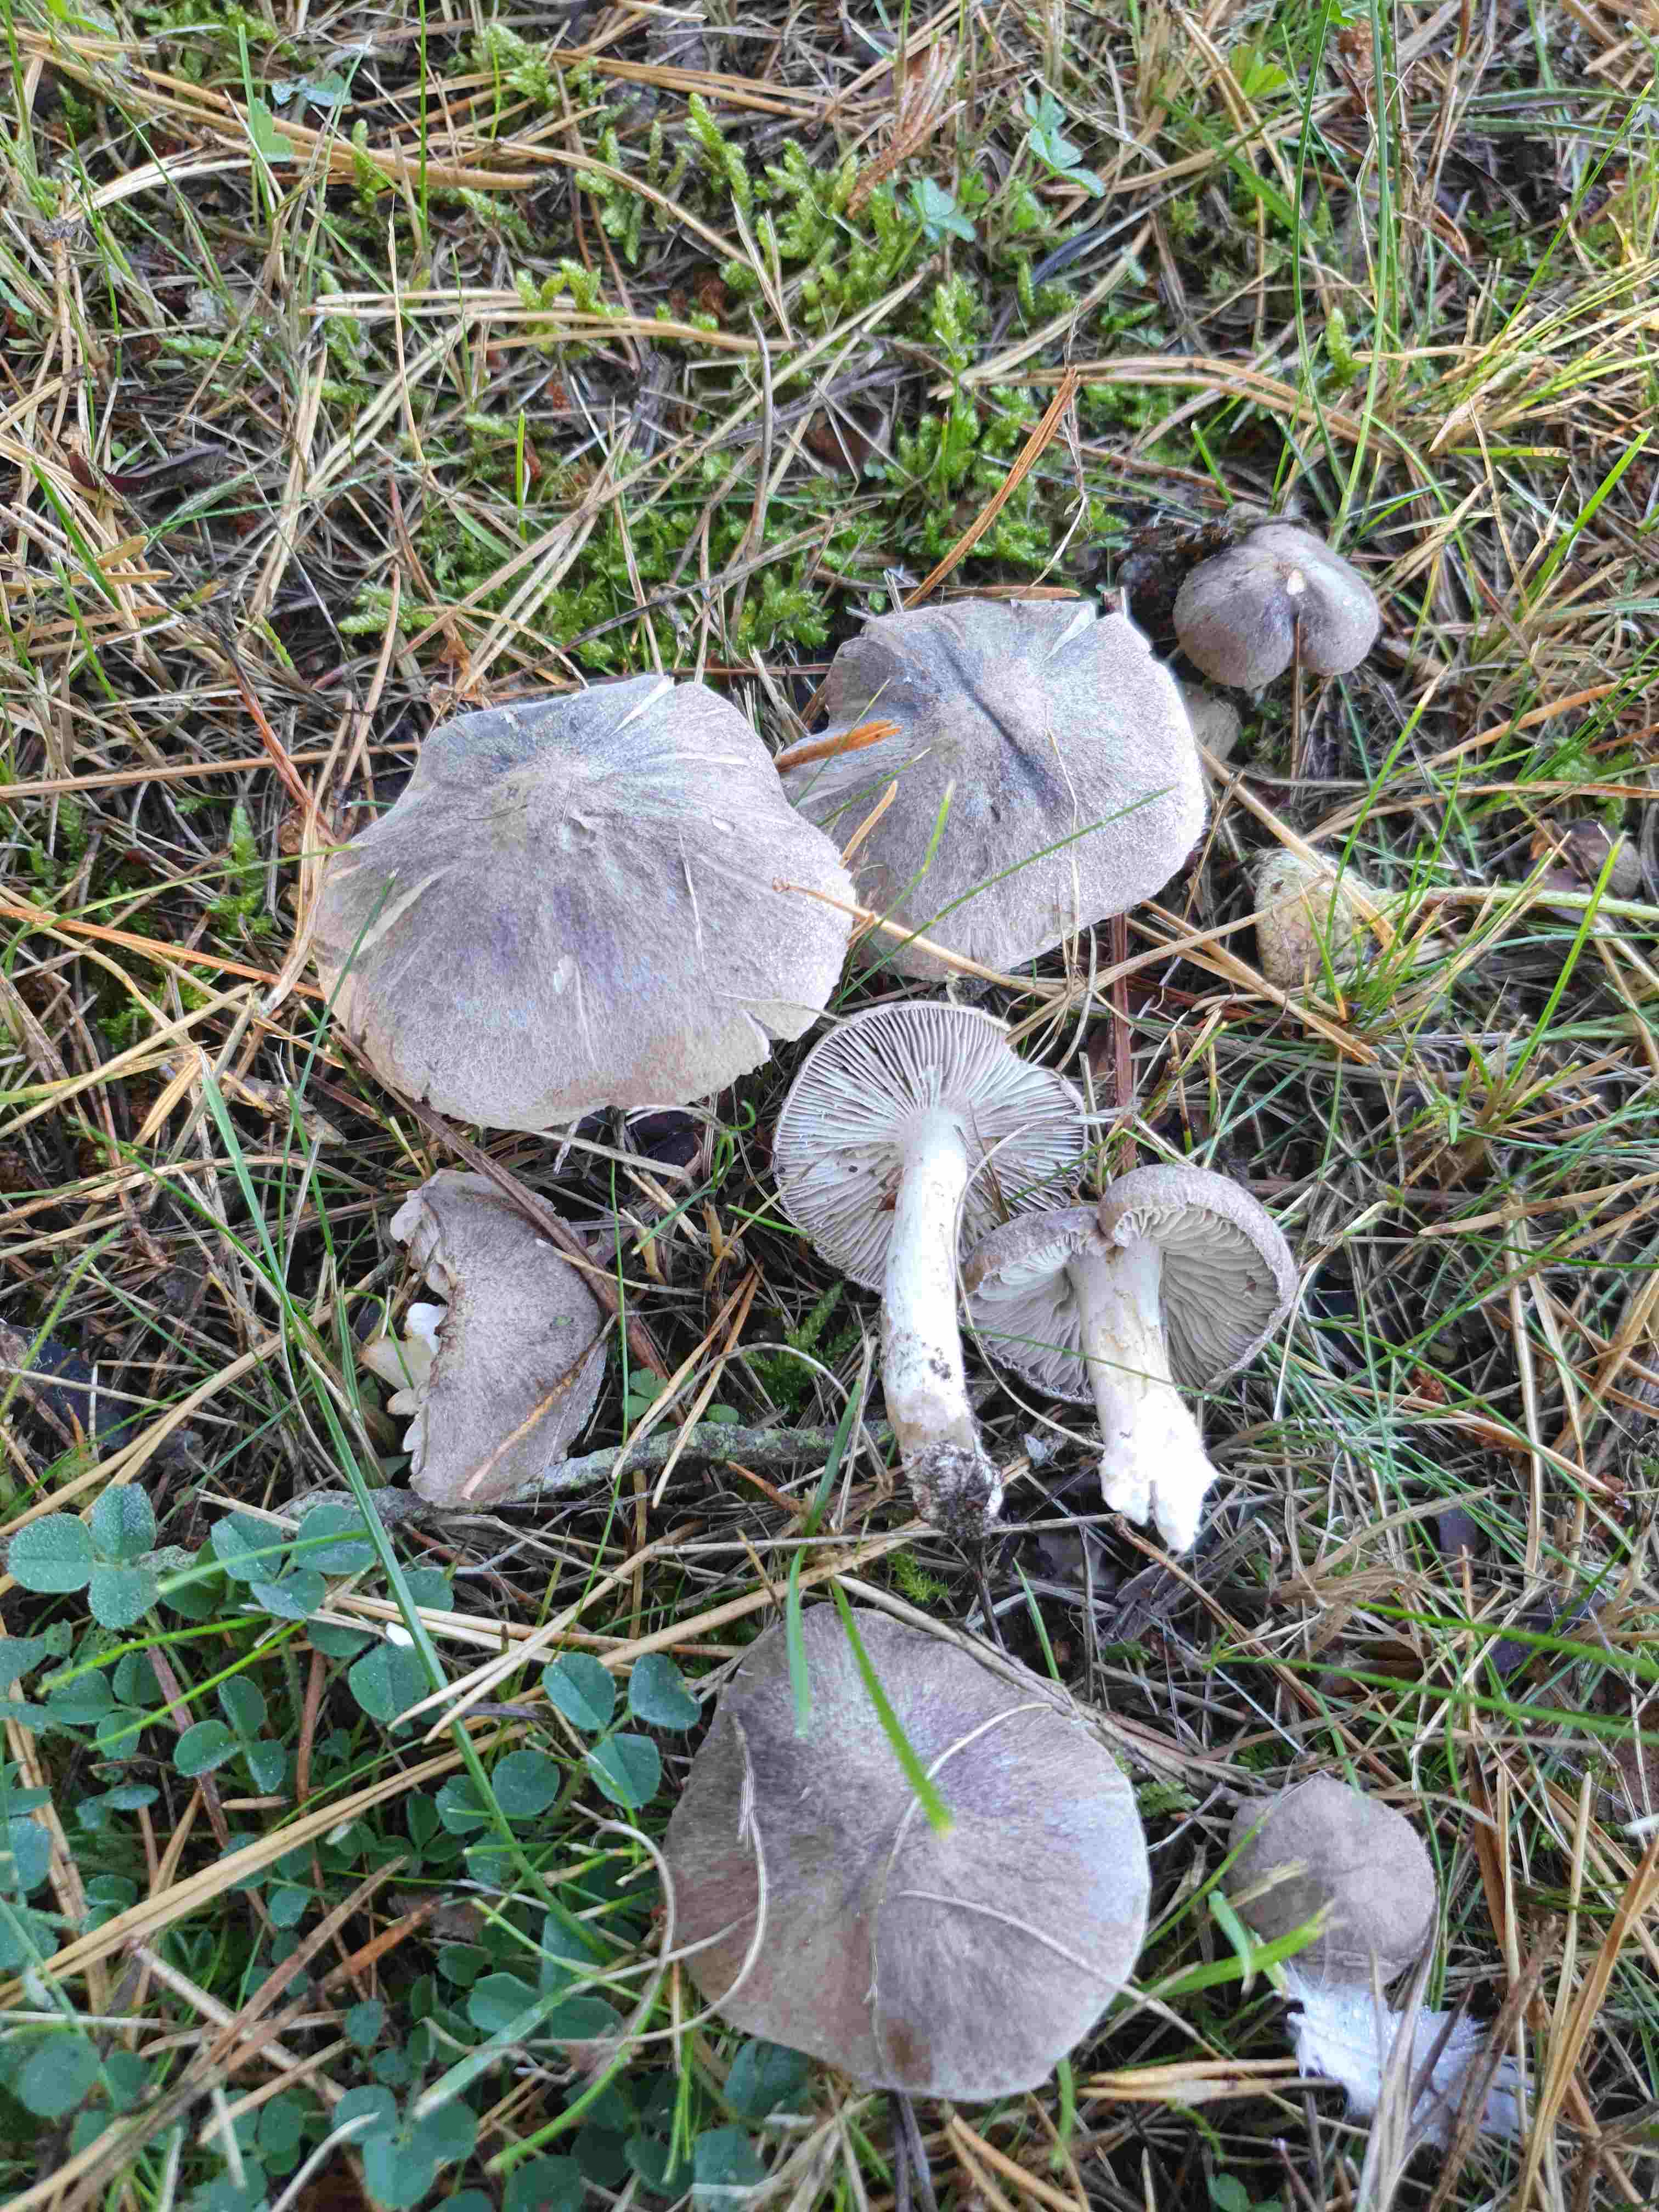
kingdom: Fungi
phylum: Basidiomycota
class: Agaricomycetes
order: Agaricales
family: Tricholomataceae
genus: Tricholoma
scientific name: Tricholoma terreum
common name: jordfarvet ridderhat
